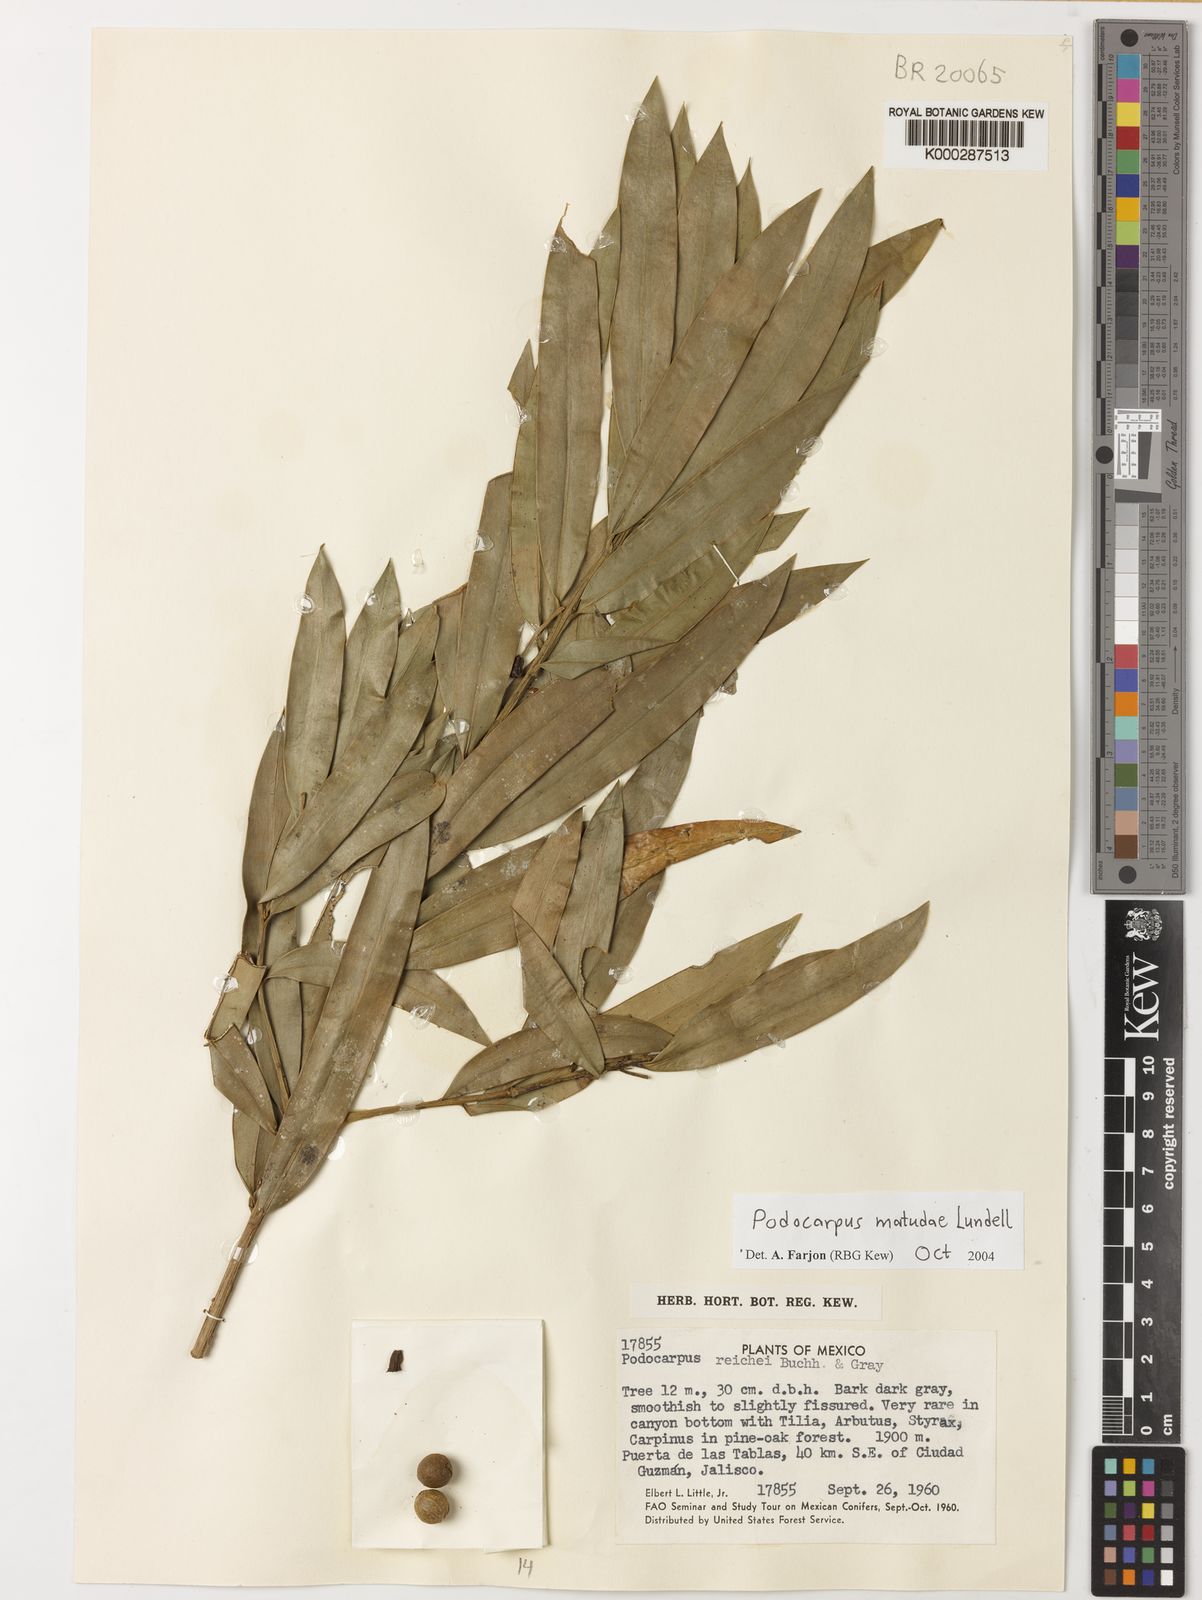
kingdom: Plantae
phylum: Tracheophyta
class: Pinopsida
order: Pinales
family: Podocarpaceae
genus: Podocarpus
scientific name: Podocarpus matudae
